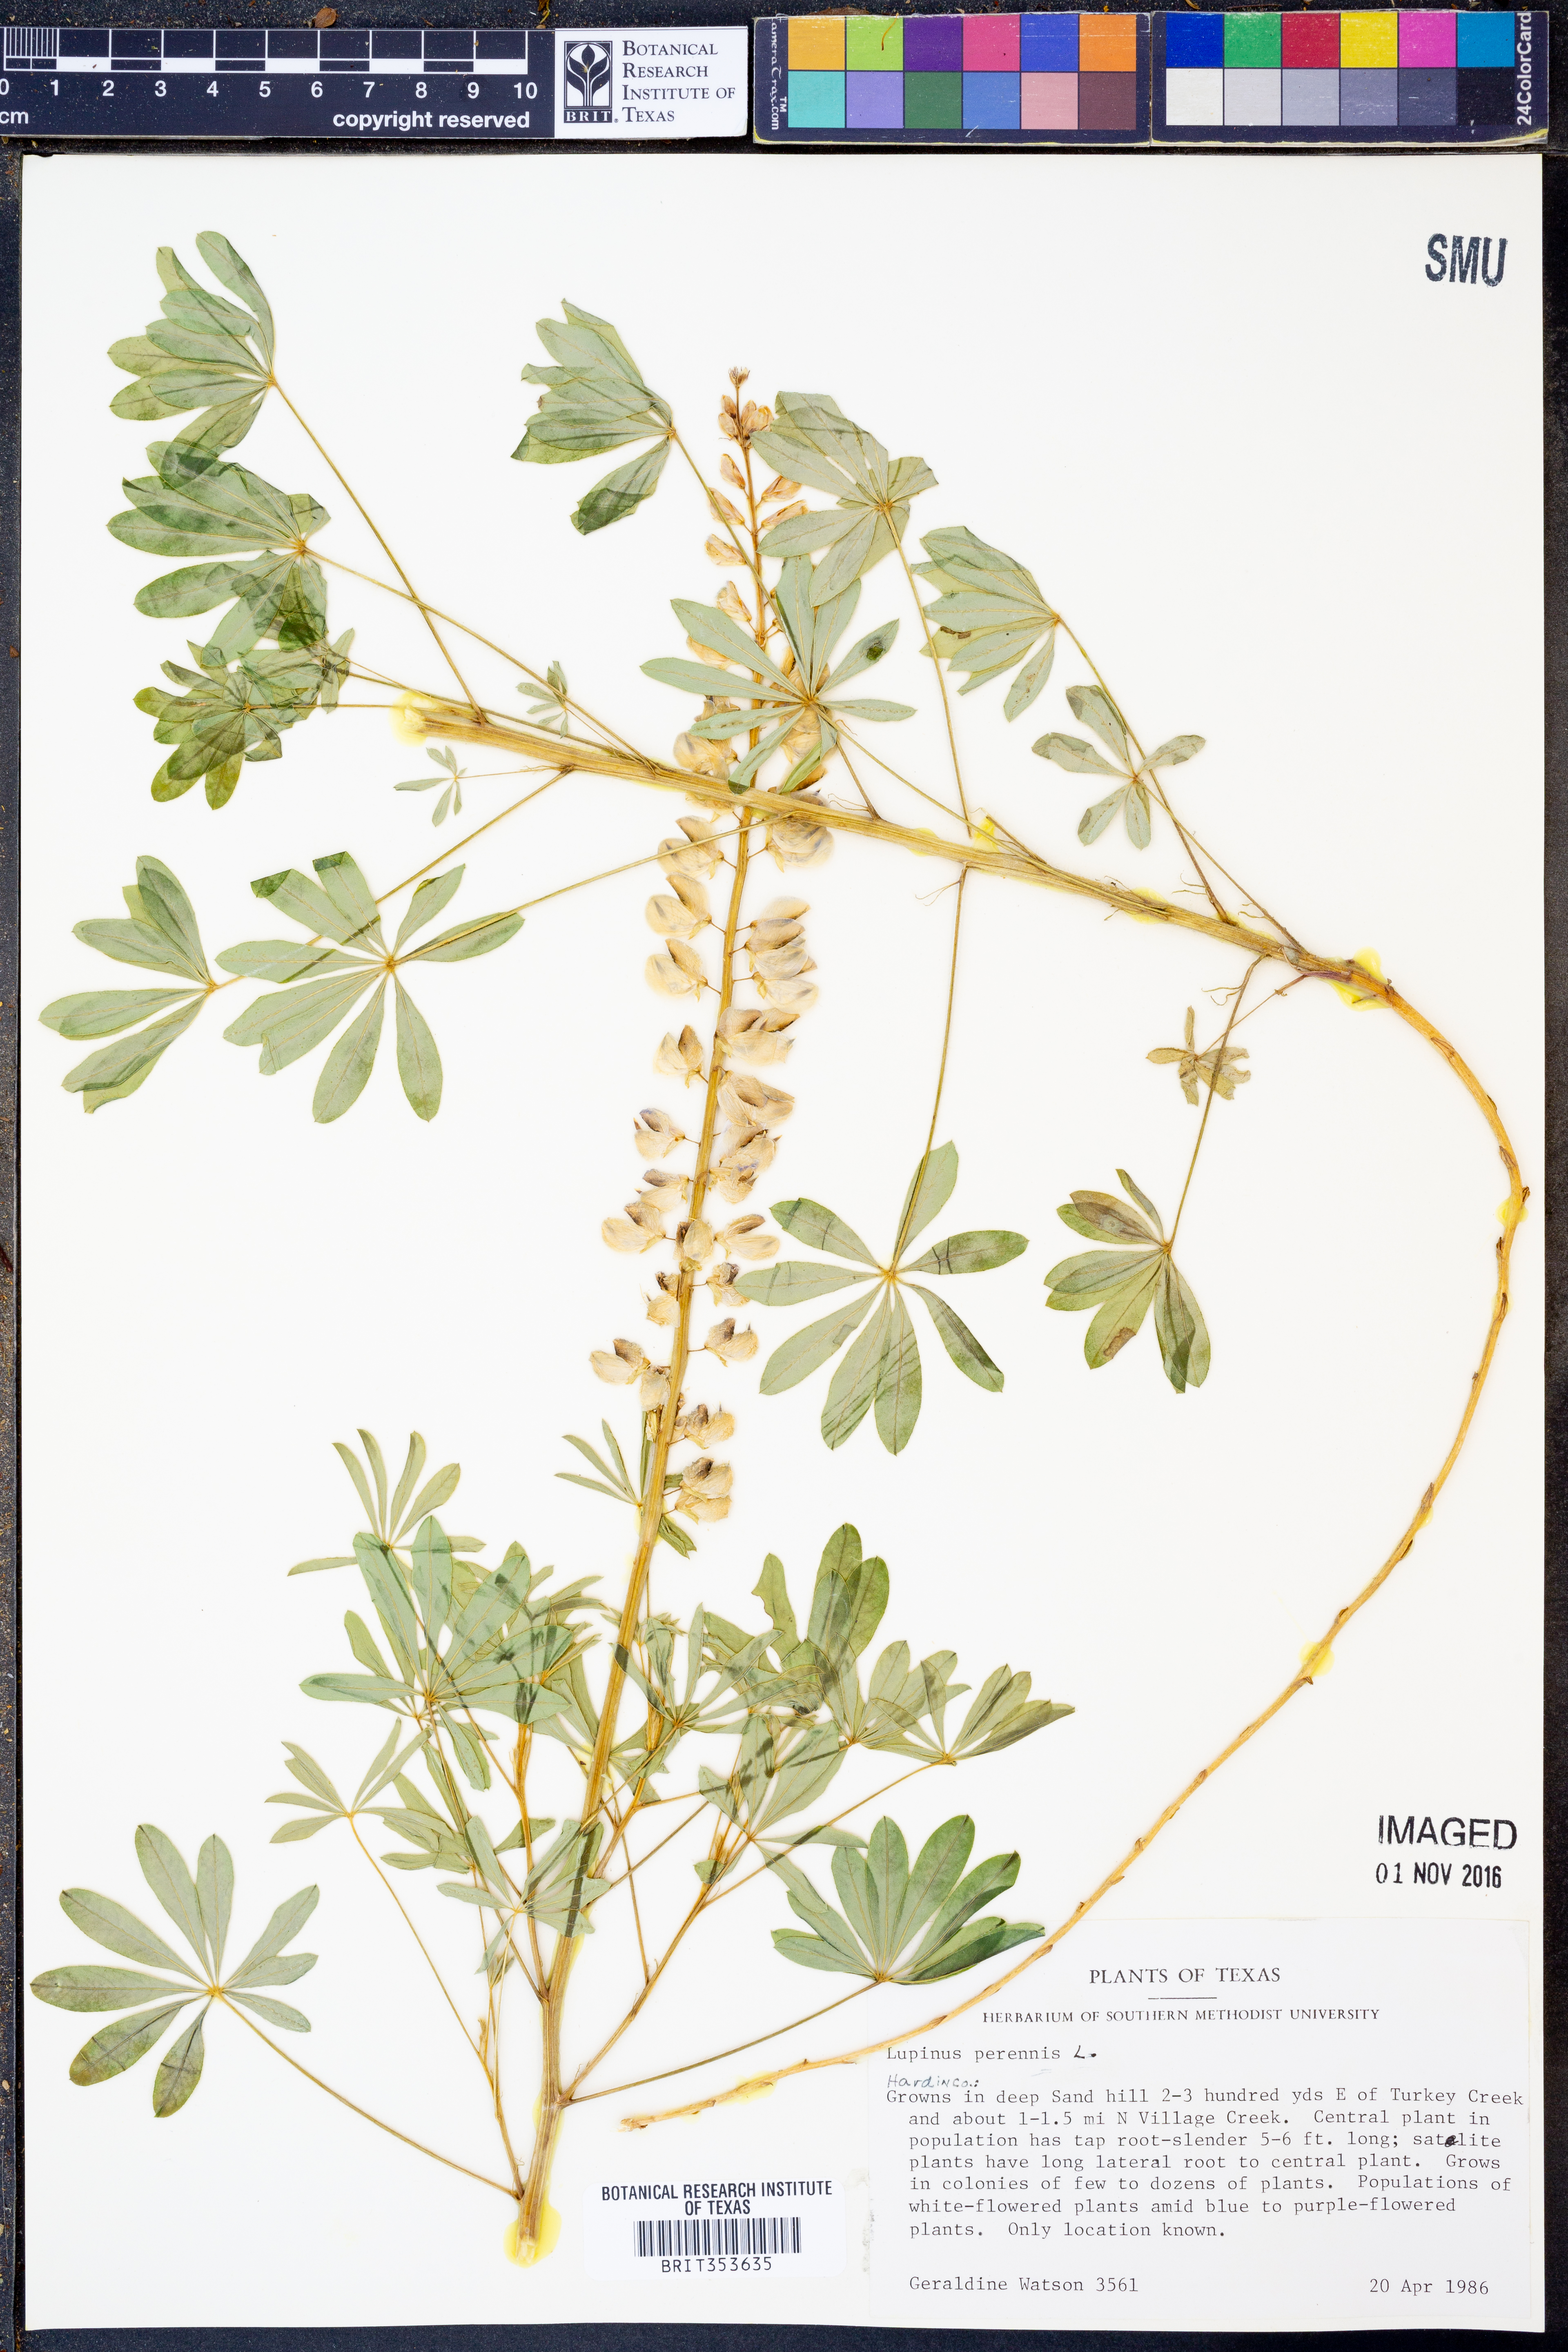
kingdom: Plantae
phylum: Tracheophyta
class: Magnoliopsida
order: Fabales
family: Fabaceae
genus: Lupinus
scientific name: Lupinus perennis
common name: Sundial lupine
